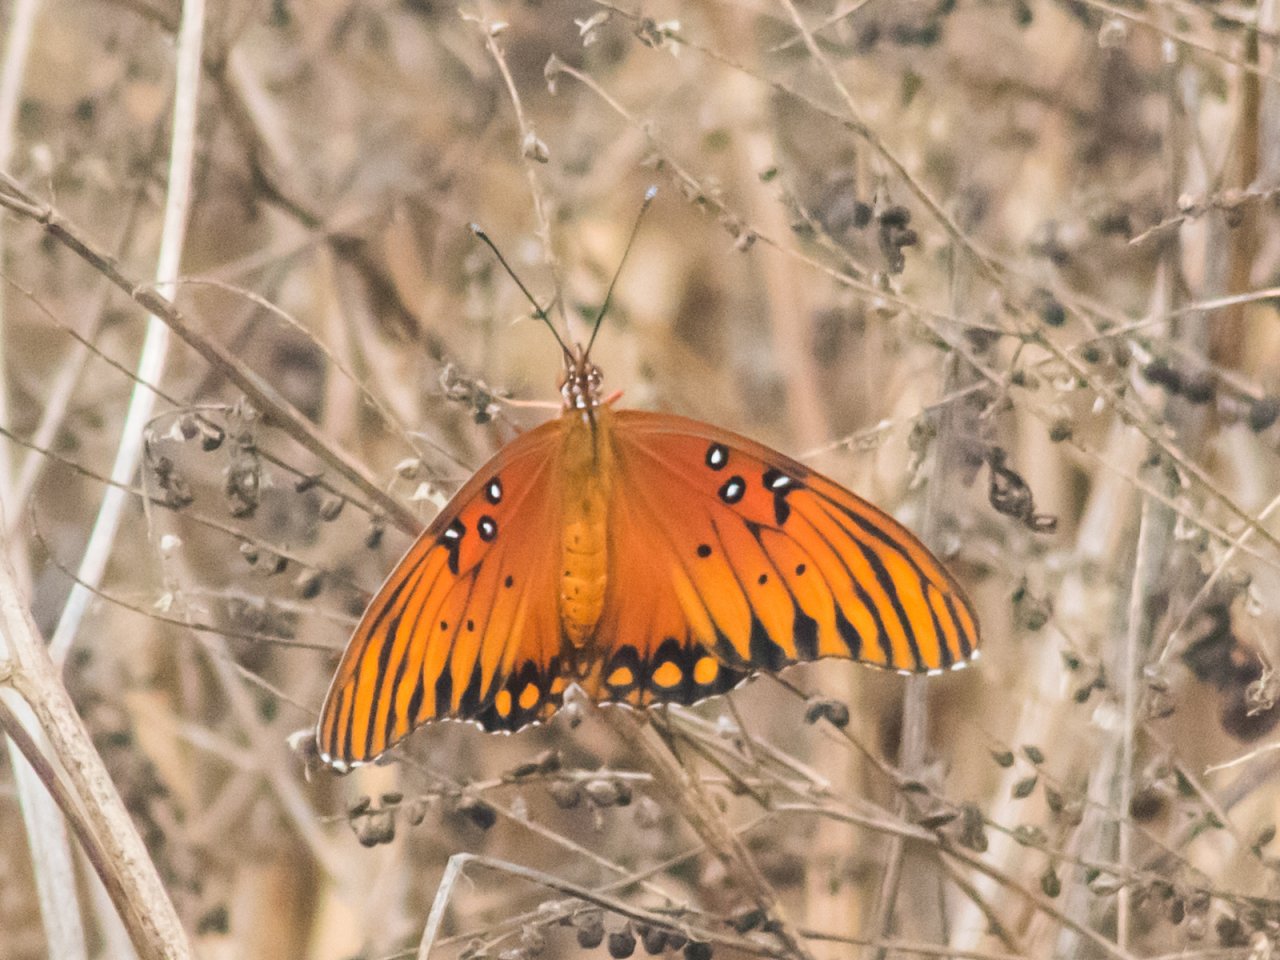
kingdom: Animalia
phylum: Arthropoda
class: Insecta
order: Lepidoptera
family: Nymphalidae
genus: Dione
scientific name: Dione vanillae
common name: Gulf Fritillary
